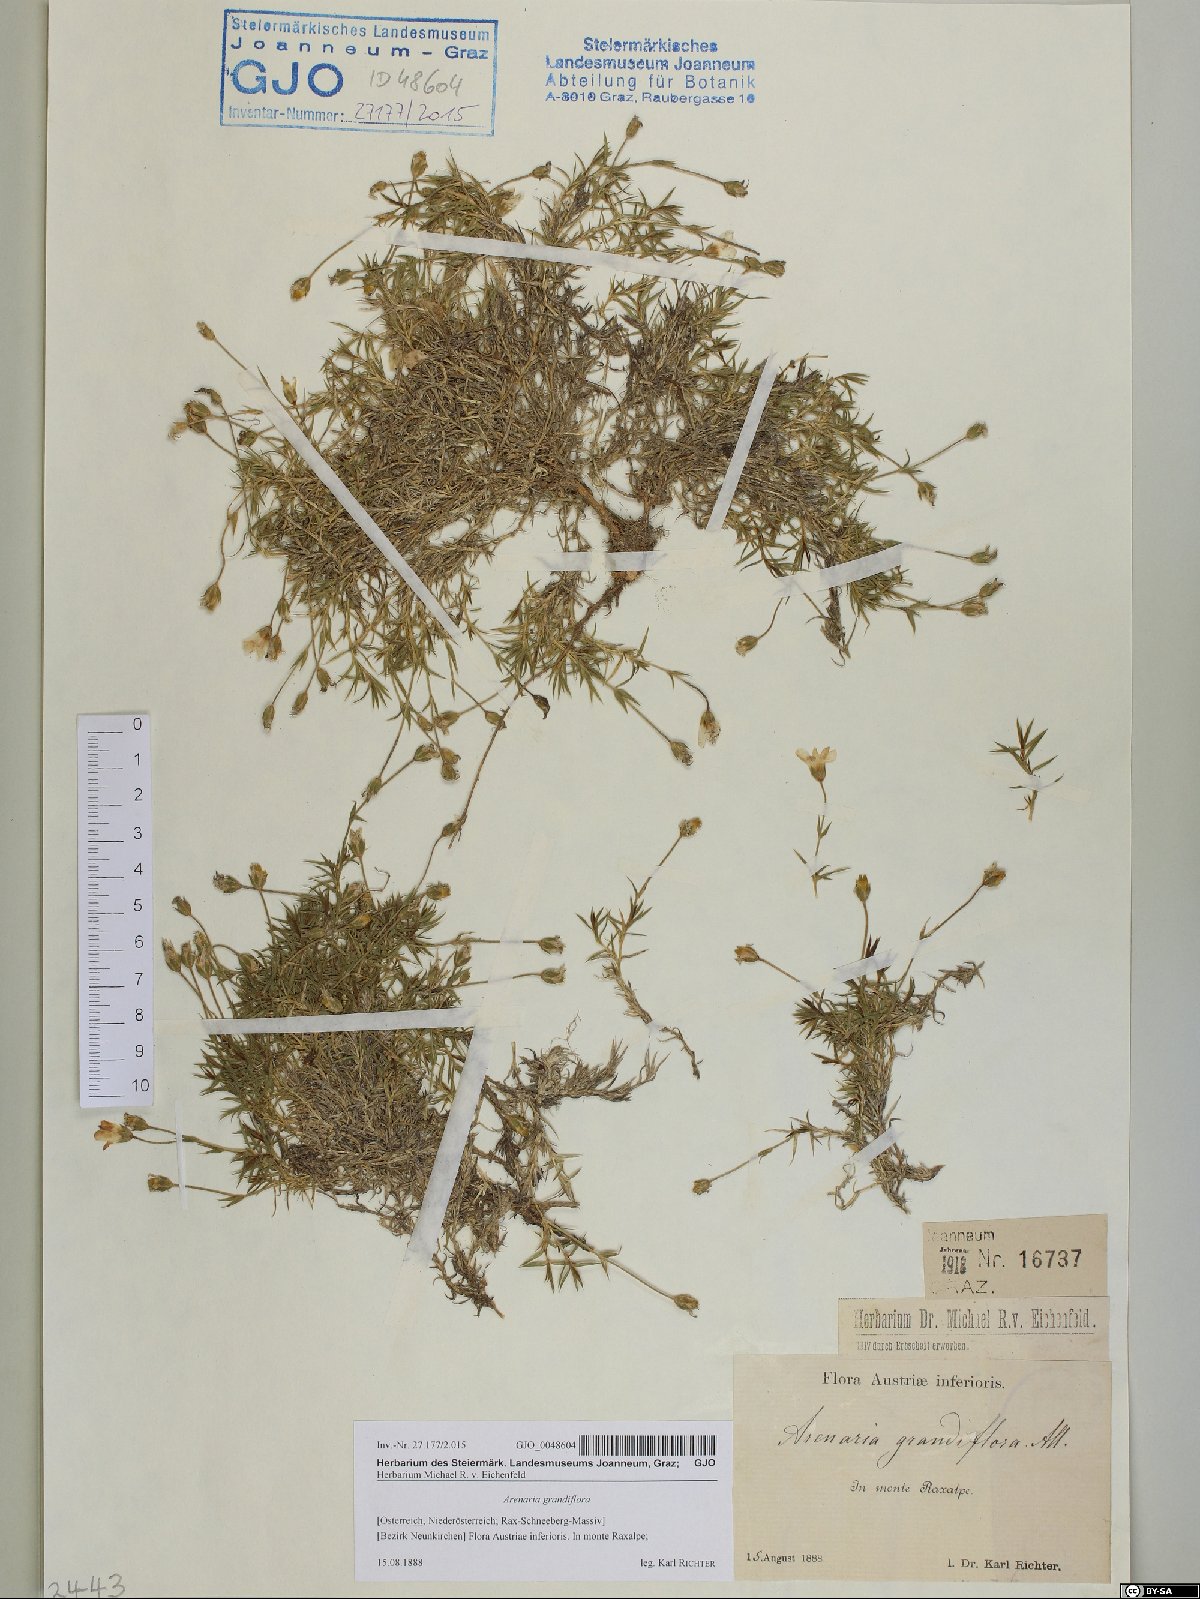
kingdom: Plantae
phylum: Tracheophyta
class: Magnoliopsida
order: Caryophyllales
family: Caryophyllaceae
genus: Arenaria
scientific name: Arenaria grandiflora
